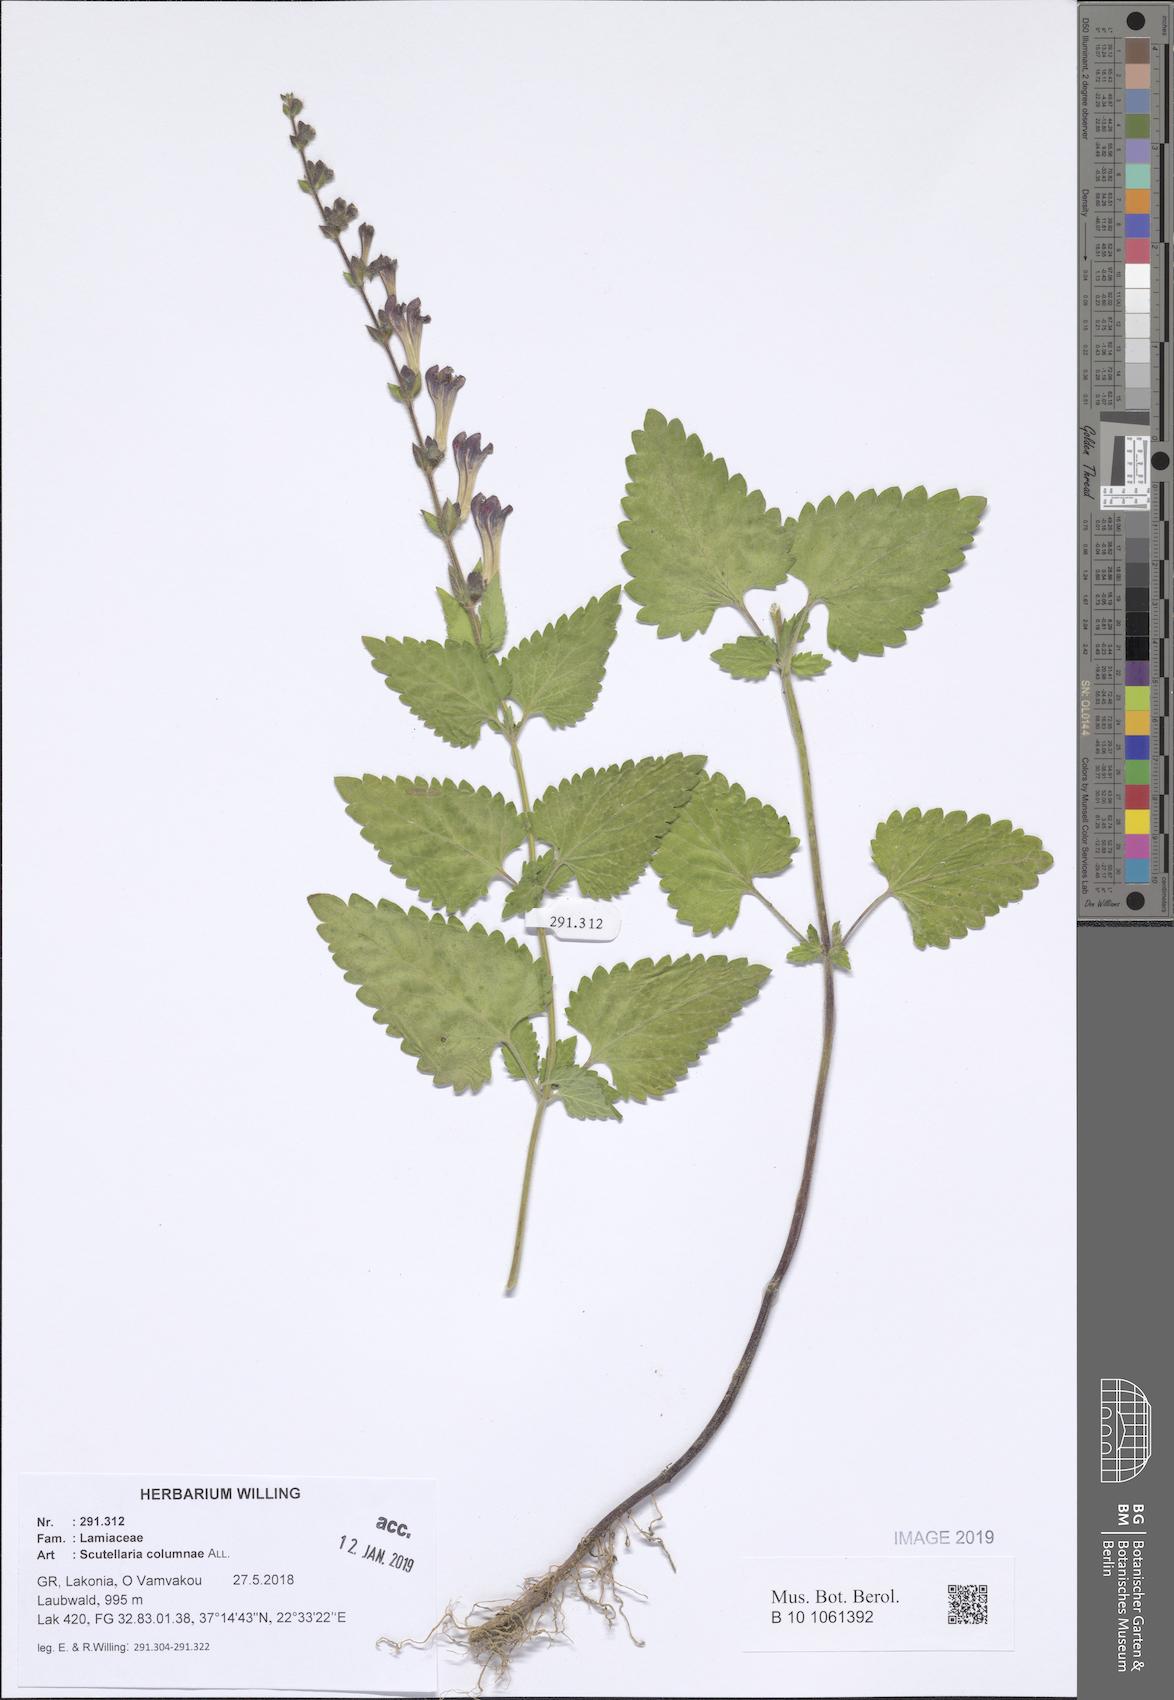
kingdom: Plantae
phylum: Tracheophyta
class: Magnoliopsida
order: Lamiales
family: Lamiaceae
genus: Scutellaria
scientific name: Scutellaria columnae
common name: Large skullcap
